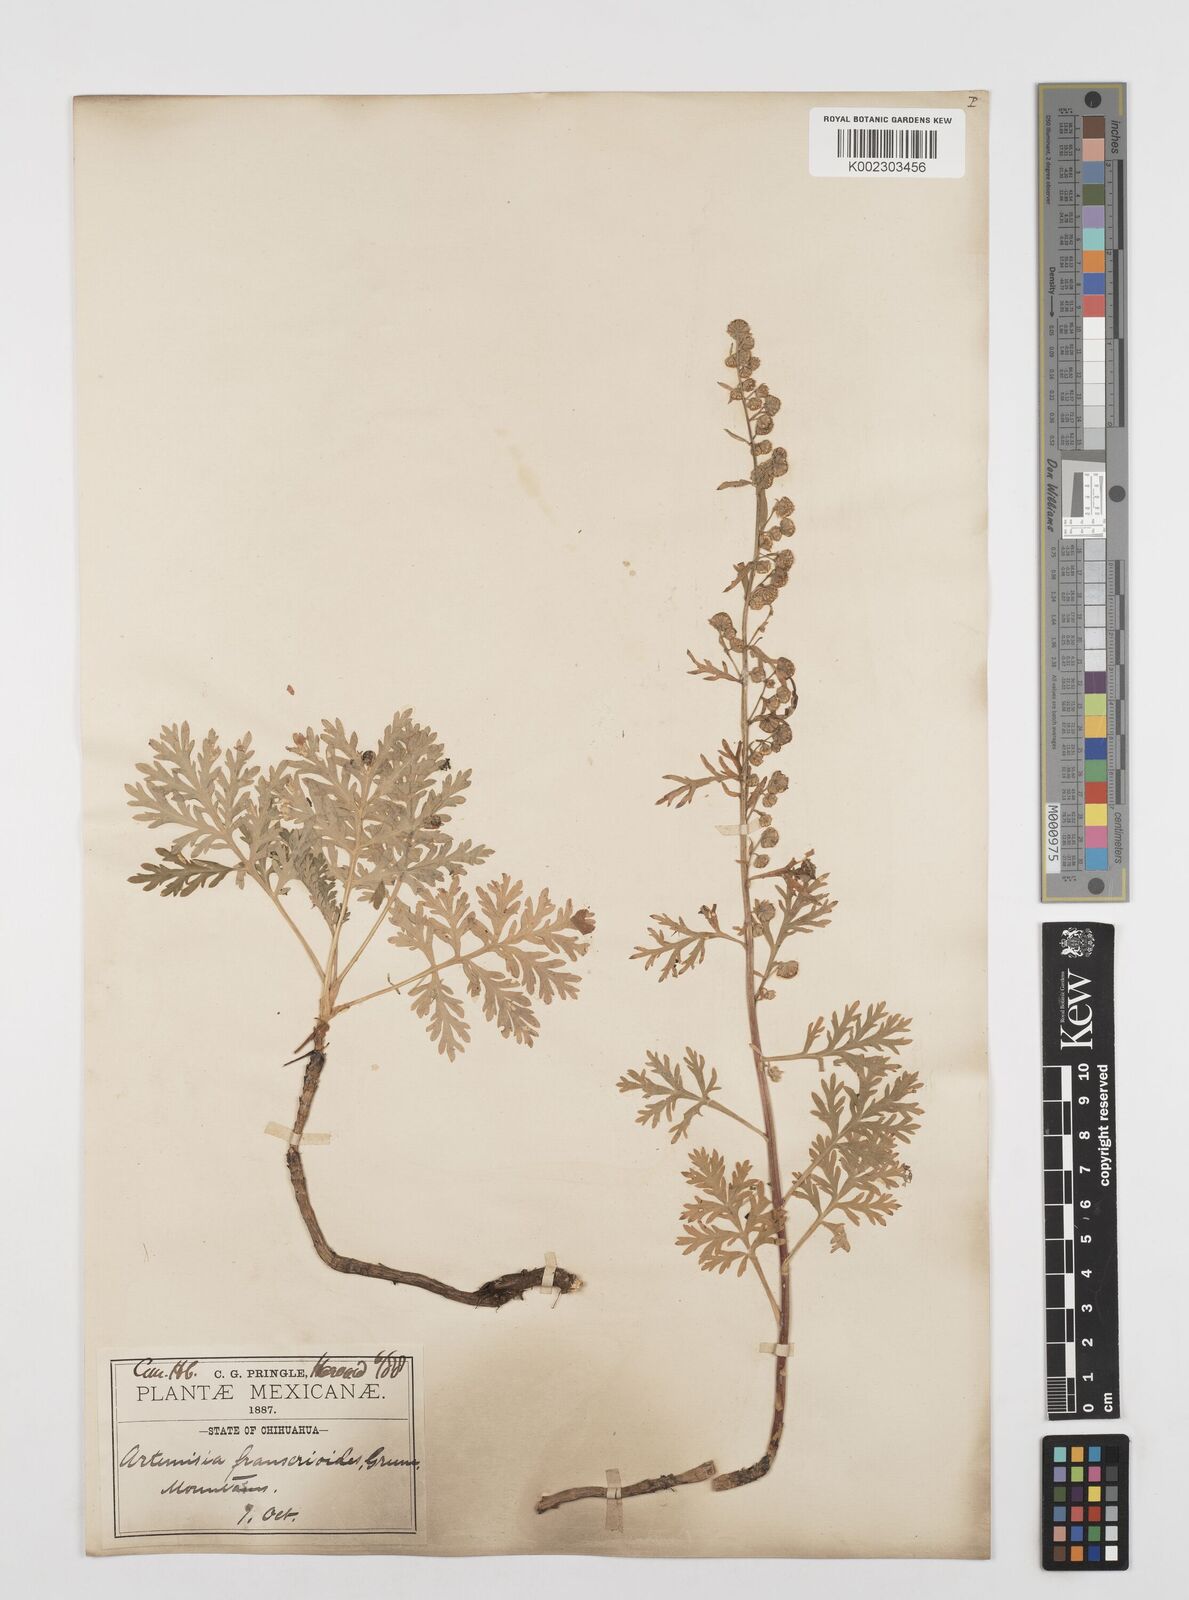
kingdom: Plantae
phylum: Tracheophyta
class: Magnoliopsida
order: Asterales
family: Asteraceae
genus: Artemisia
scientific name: Artemisia franserioides
